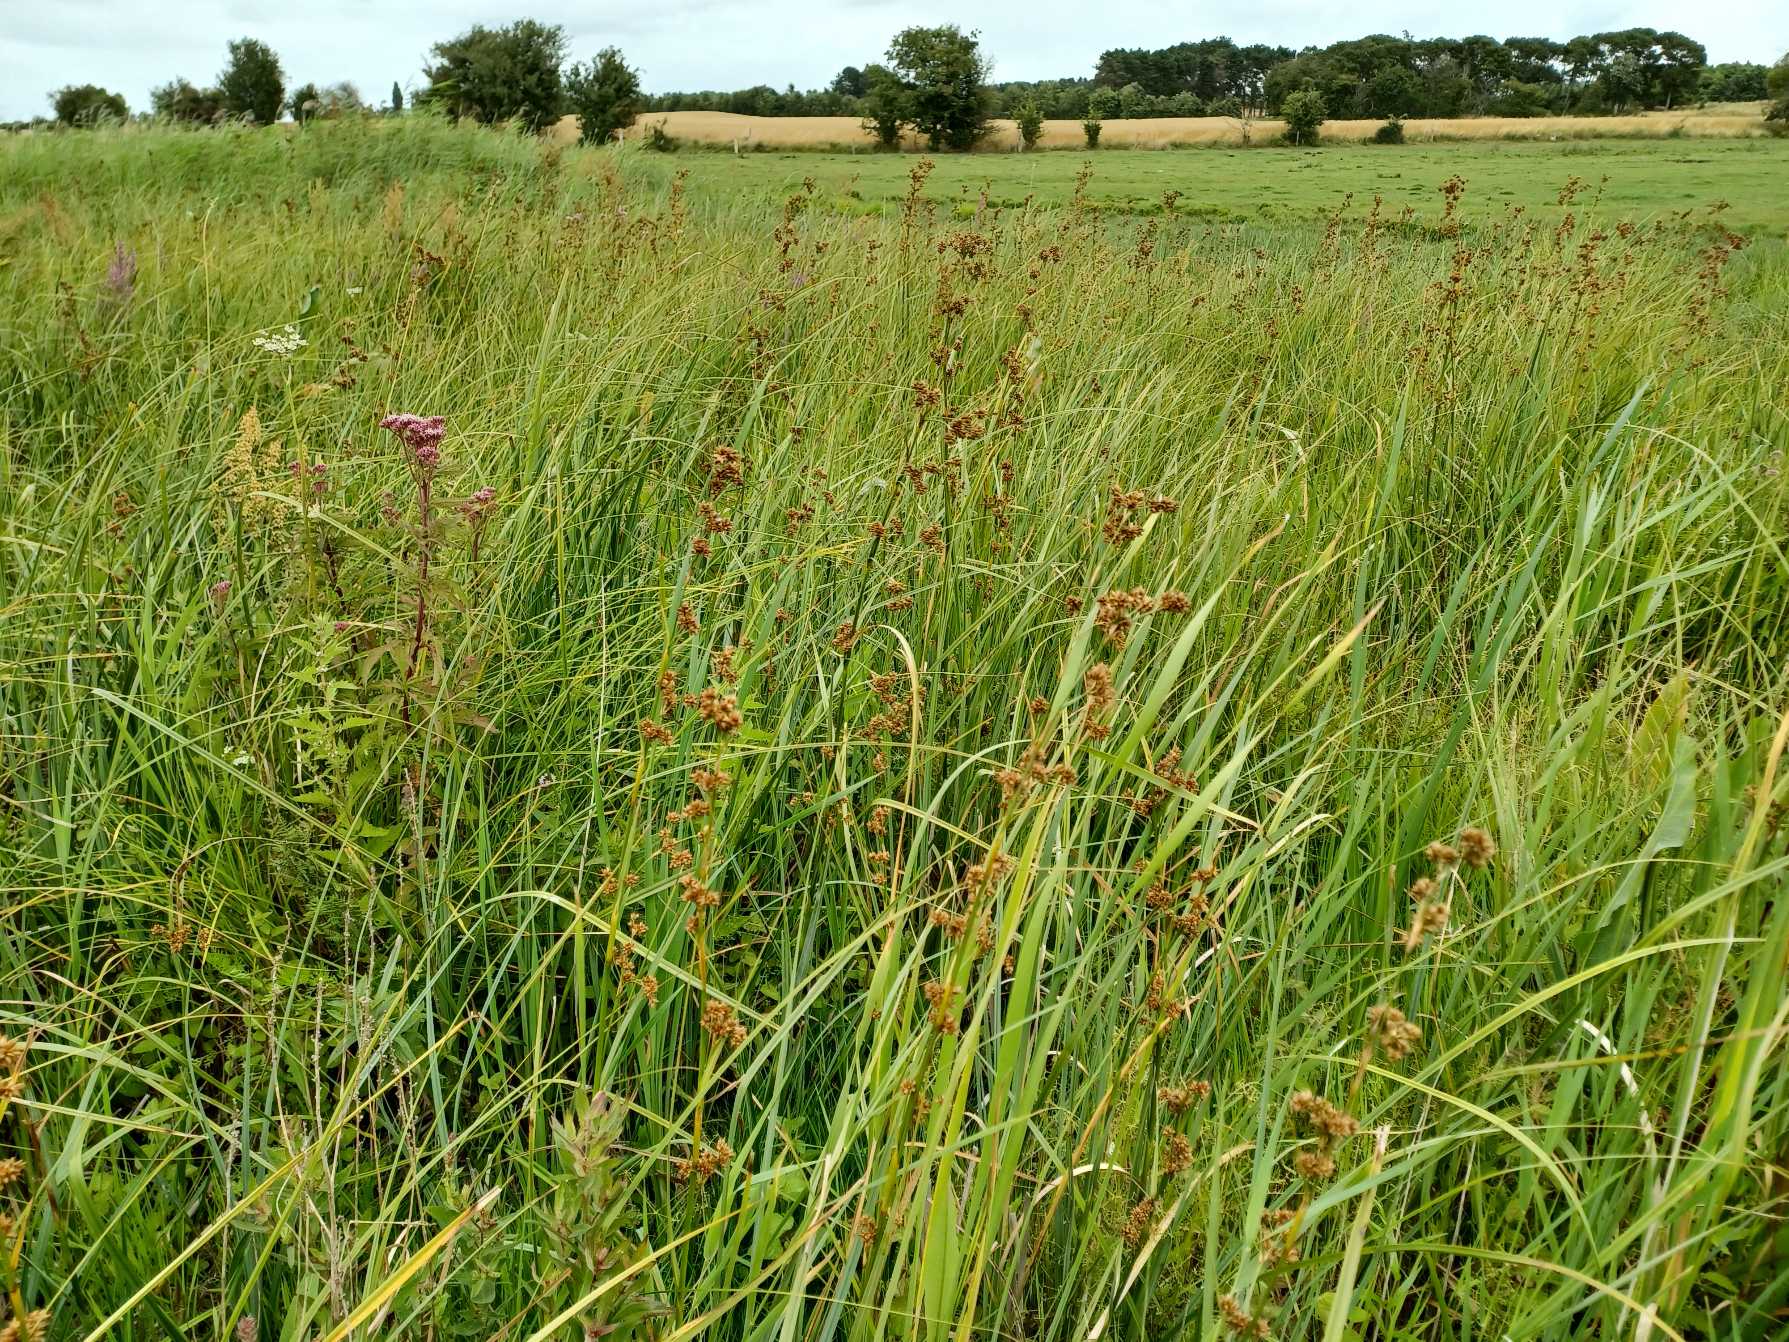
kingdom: Plantae
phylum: Tracheophyta
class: Liliopsida
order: Poales
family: Cyperaceae
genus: Cladium
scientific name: Cladium mariscus
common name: Hvas avneknippe
